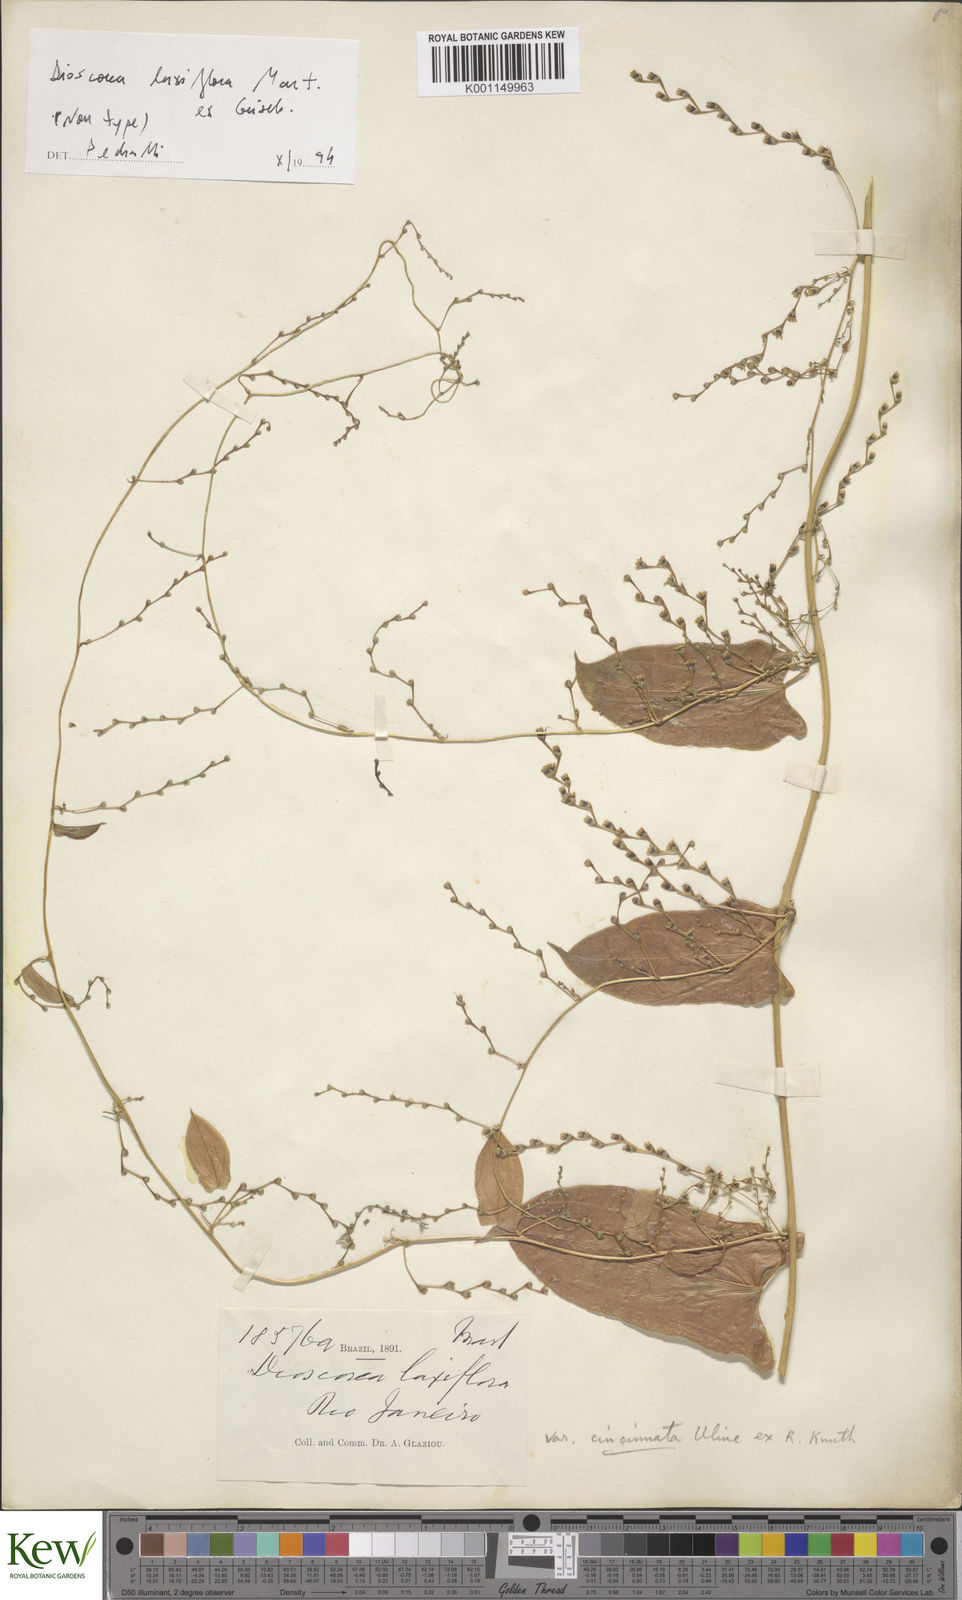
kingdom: Plantae
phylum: Tracheophyta
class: Liliopsida
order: Dioscoreales
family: Dioscoreaceae
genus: Dioscorea
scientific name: Dioscorea laxiflora
